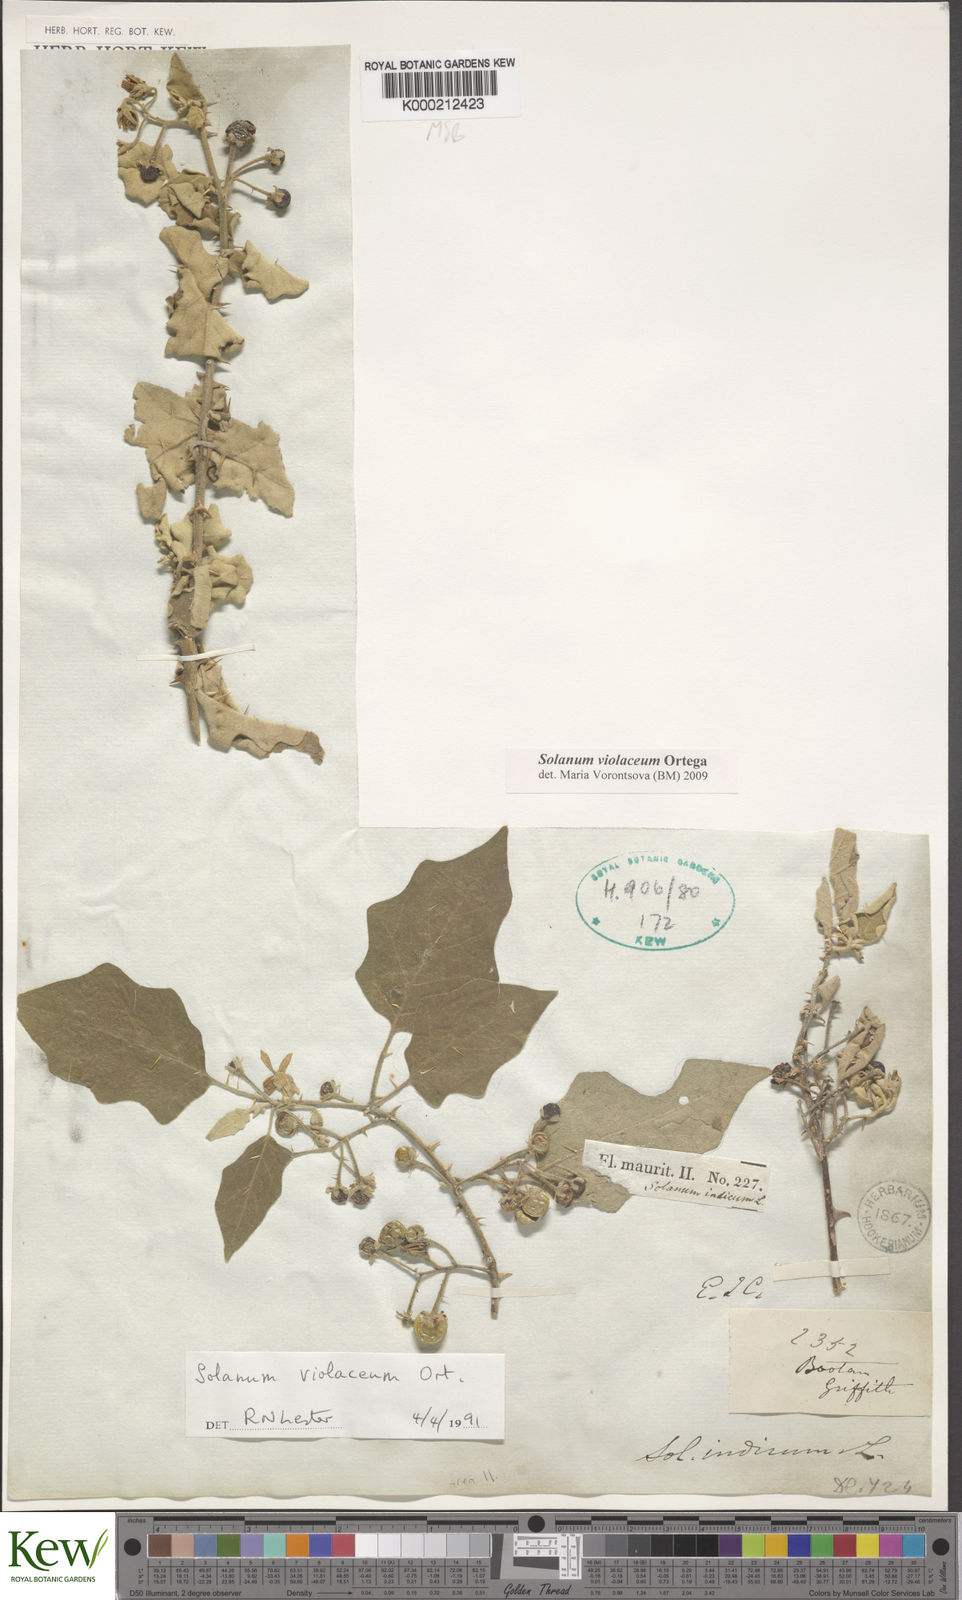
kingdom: Plantae
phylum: Tracheophyta
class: Magnoliopsida
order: Solanales
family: Solanaceae
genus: Solanum
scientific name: Solanum violaceum
